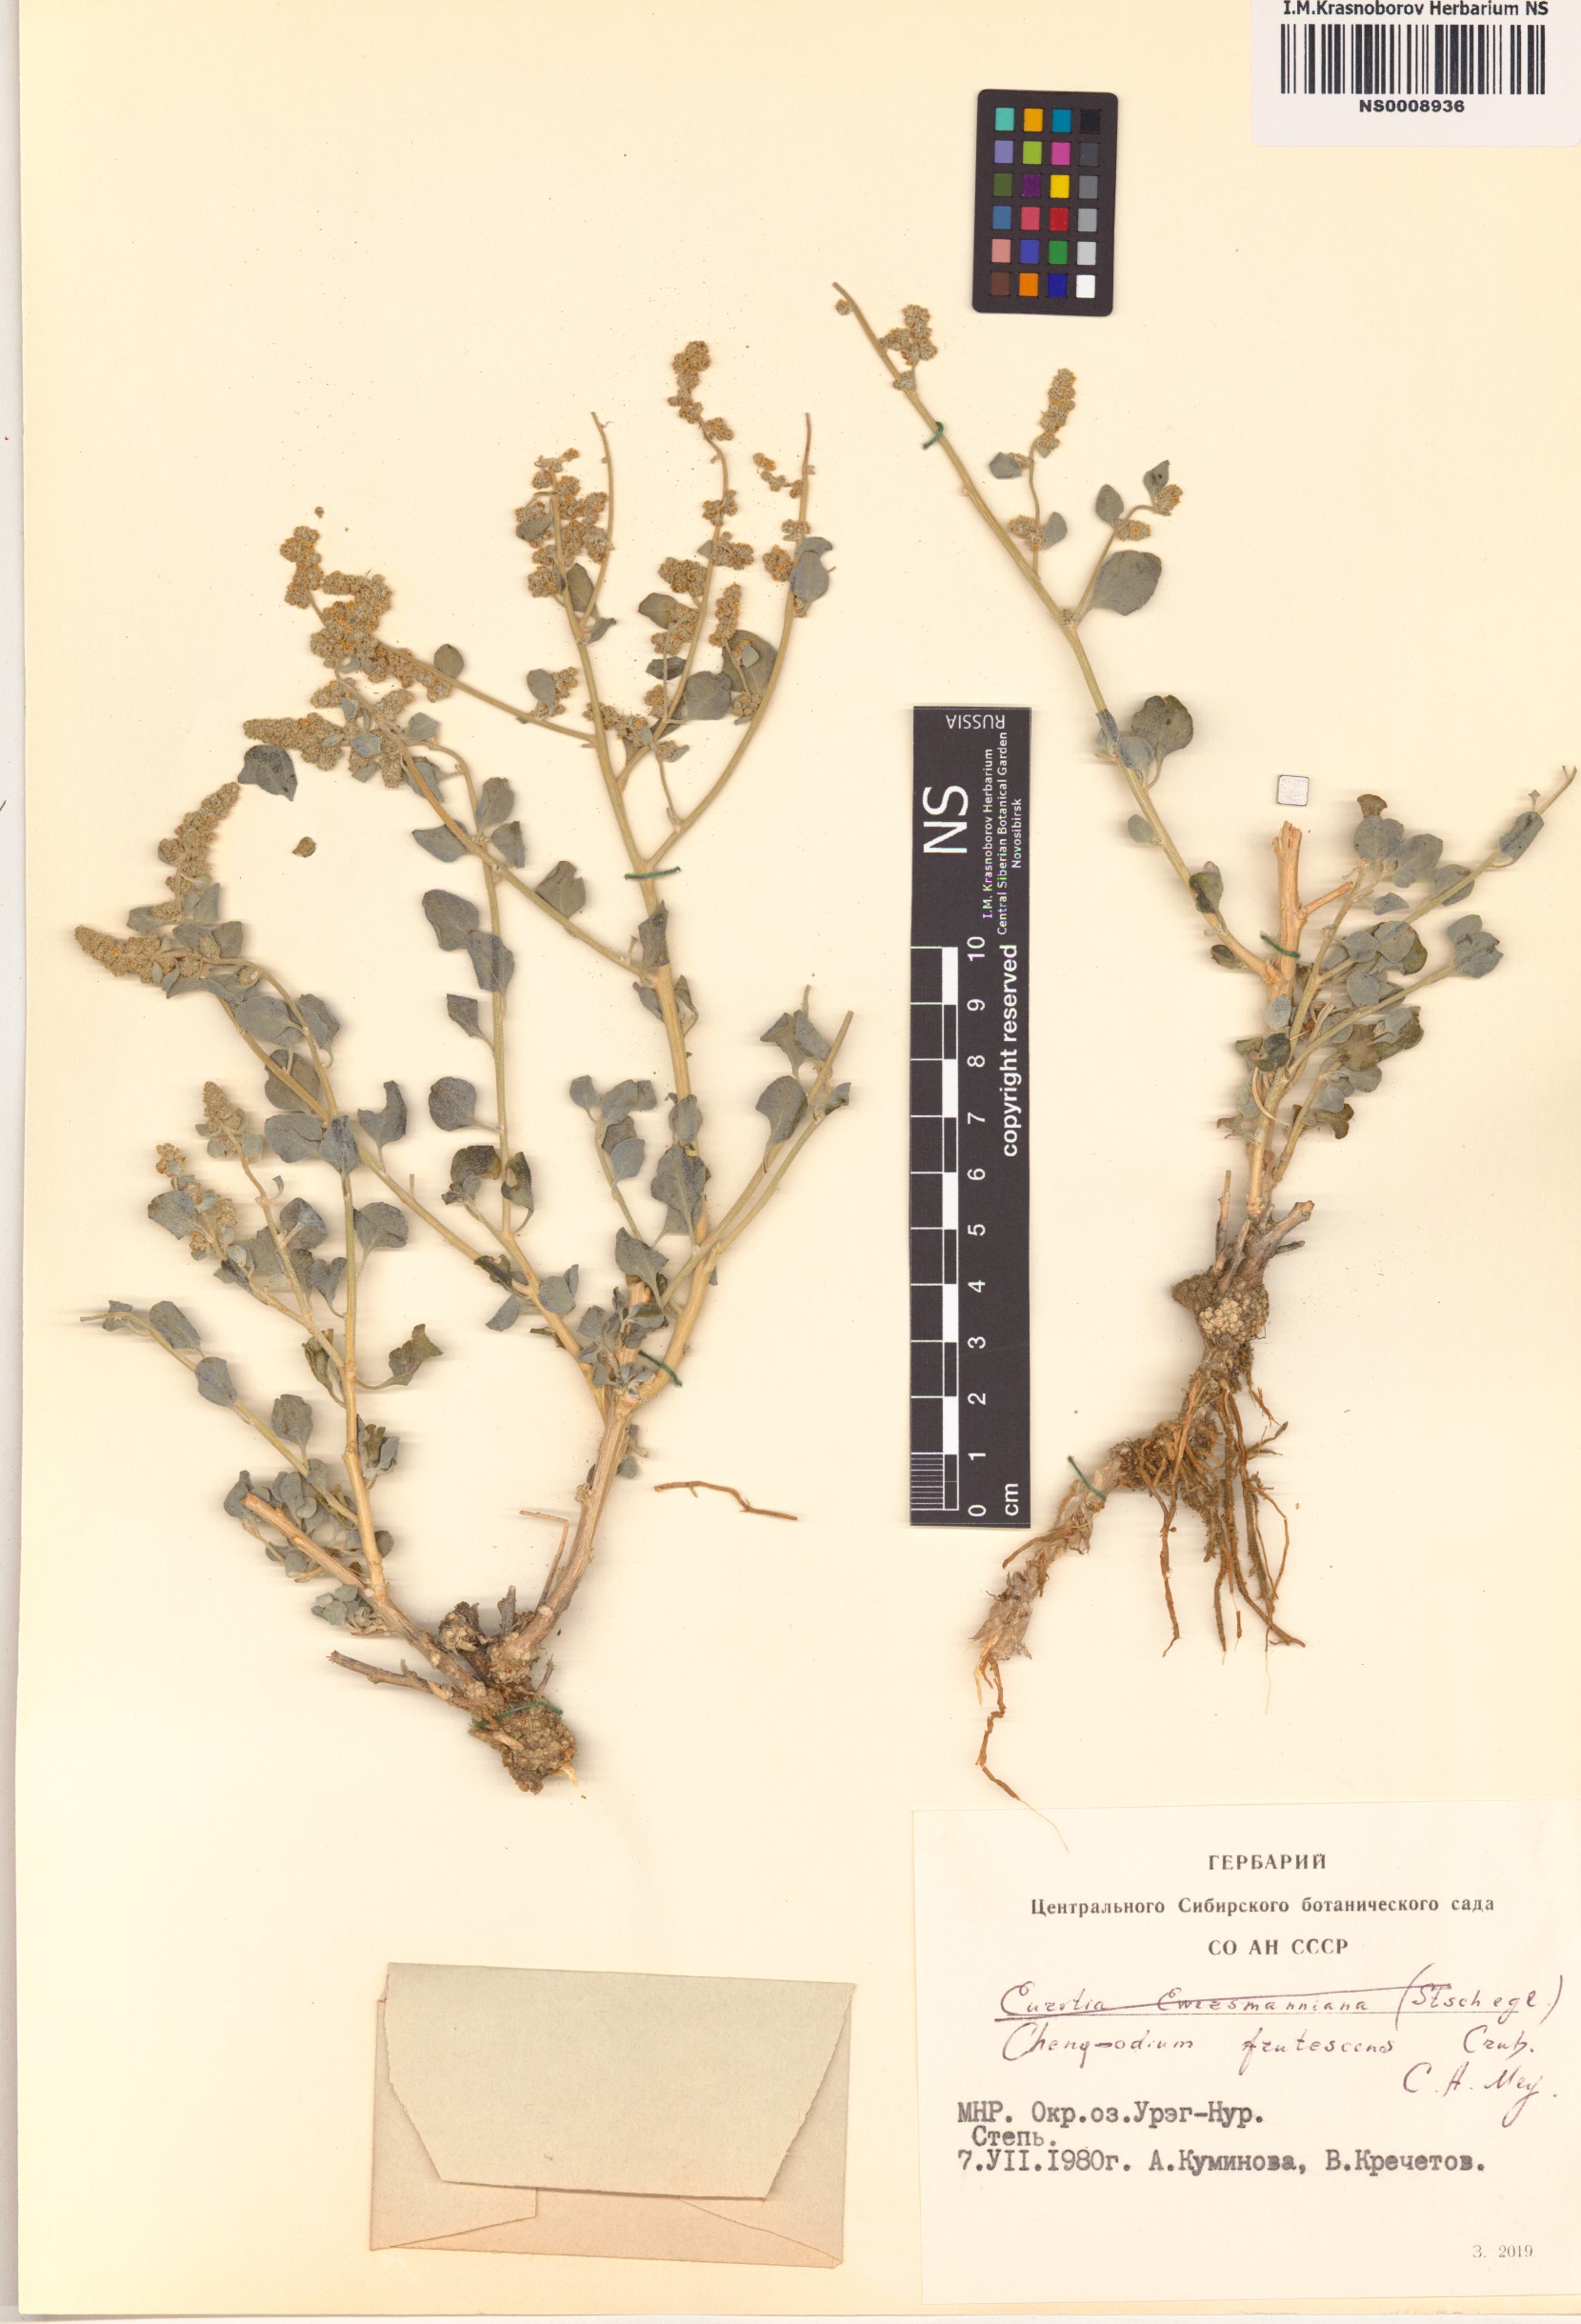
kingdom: Plantae
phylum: Tracheophyta
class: Magnoliopsida
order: Caryophyllales
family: Amaranthaceae
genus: Chenopodium
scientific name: Chenopodium frutescens
